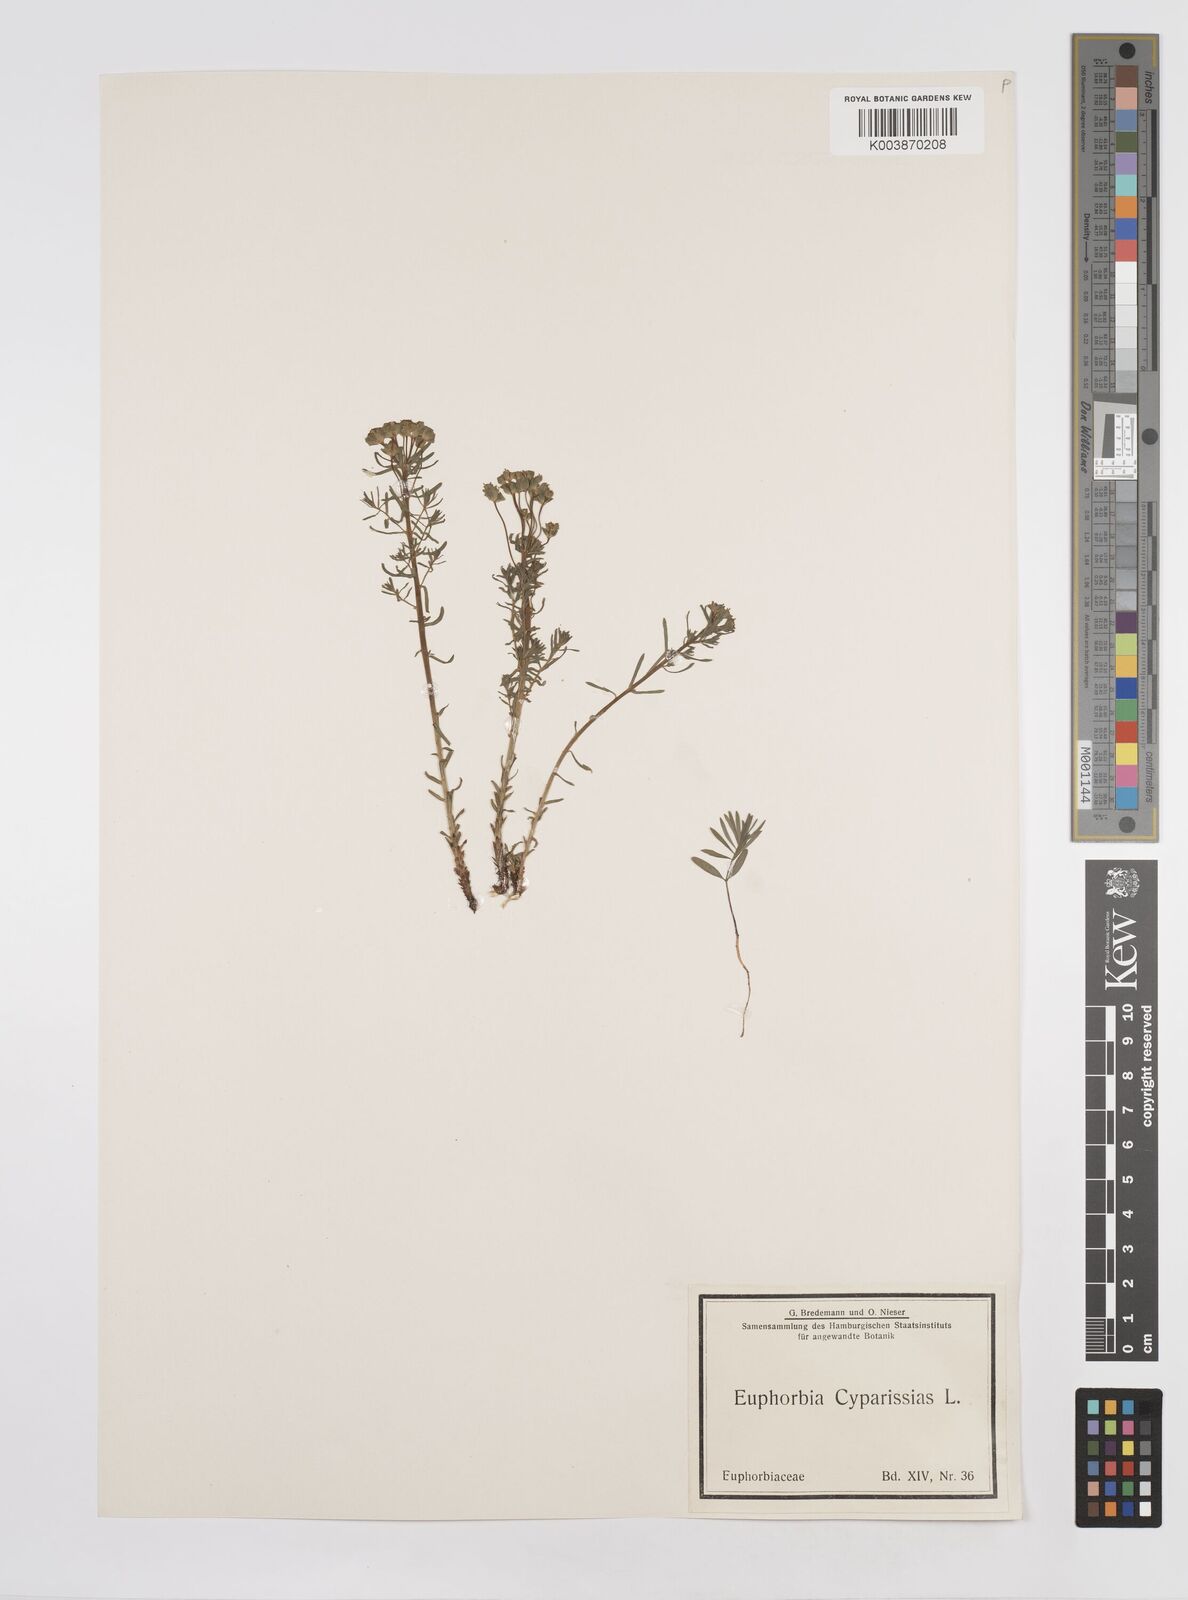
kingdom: Plantae
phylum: Tracheophyta
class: Magnoliopsida
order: Malpighiales
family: Euphorbiaceae
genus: Euphorbia
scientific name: Euphorbia cyparissias
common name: Cypress spurge
